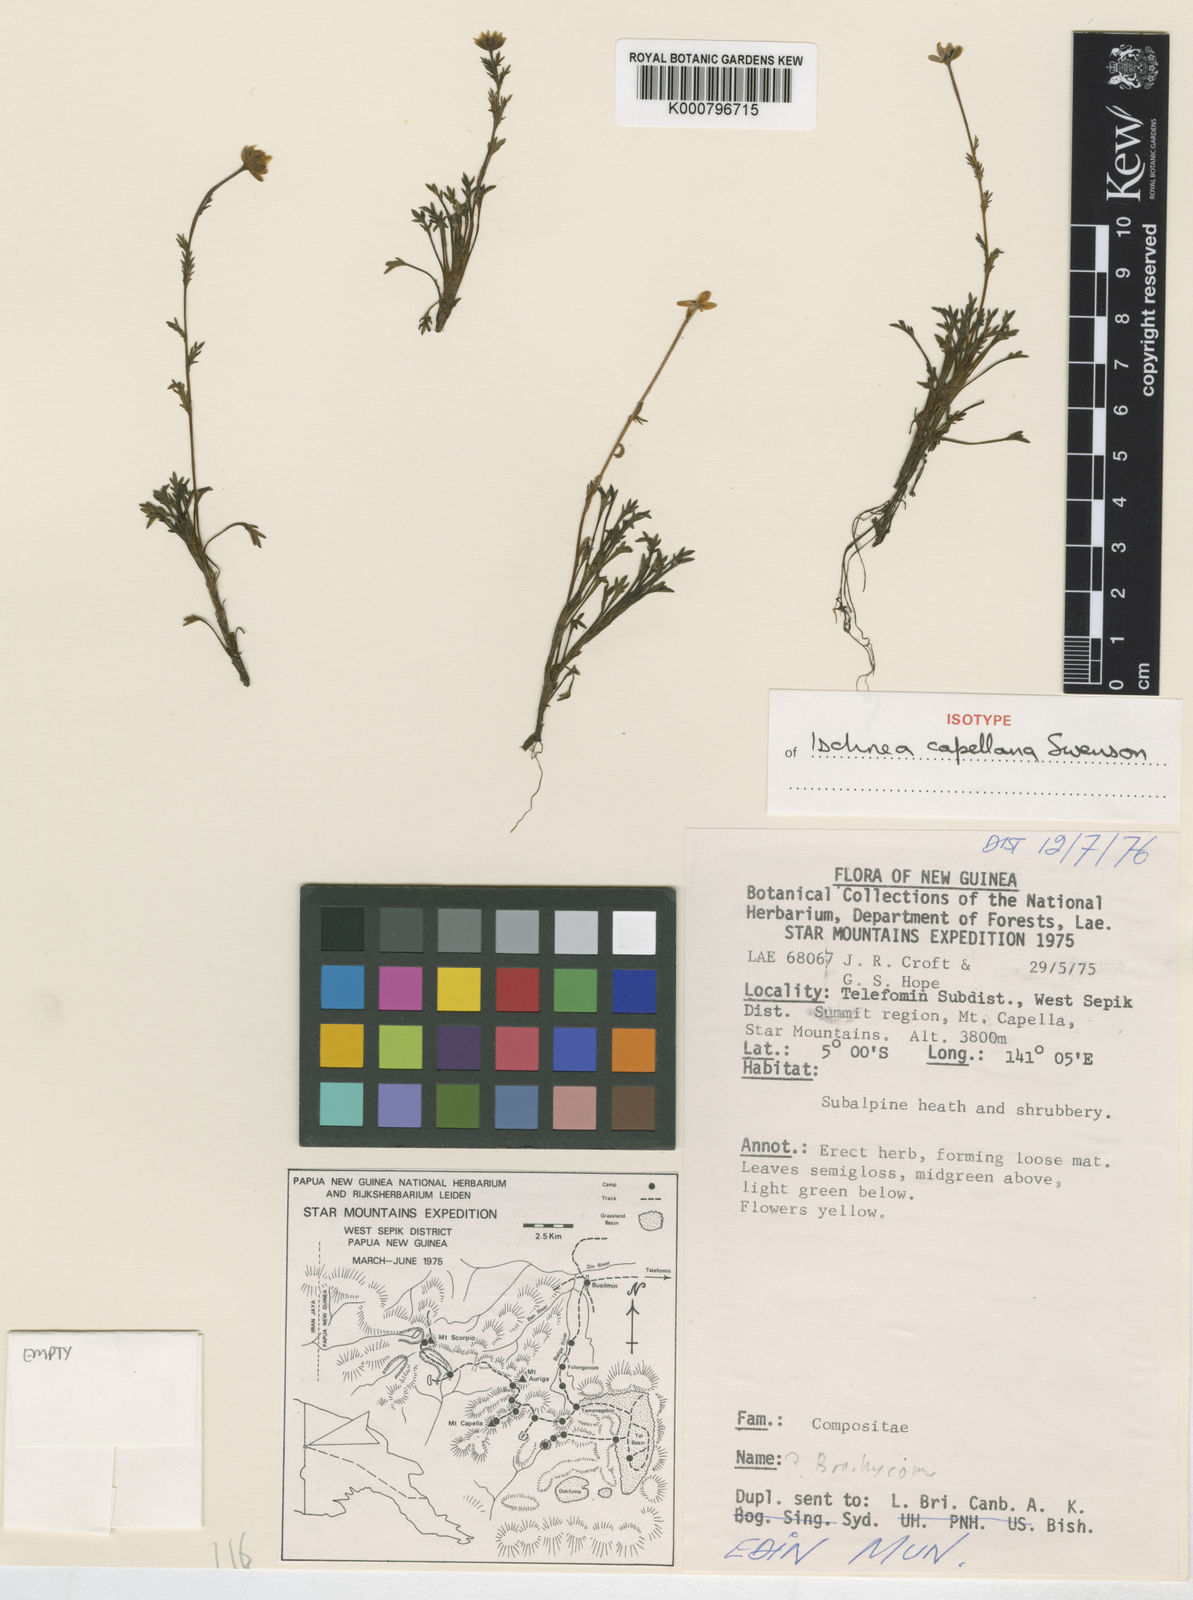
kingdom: Plantae
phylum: Tracheophyta
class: Magnoliopsida
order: Asterales
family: Asteraceae
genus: Ischnea
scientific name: Ischnea capellana
